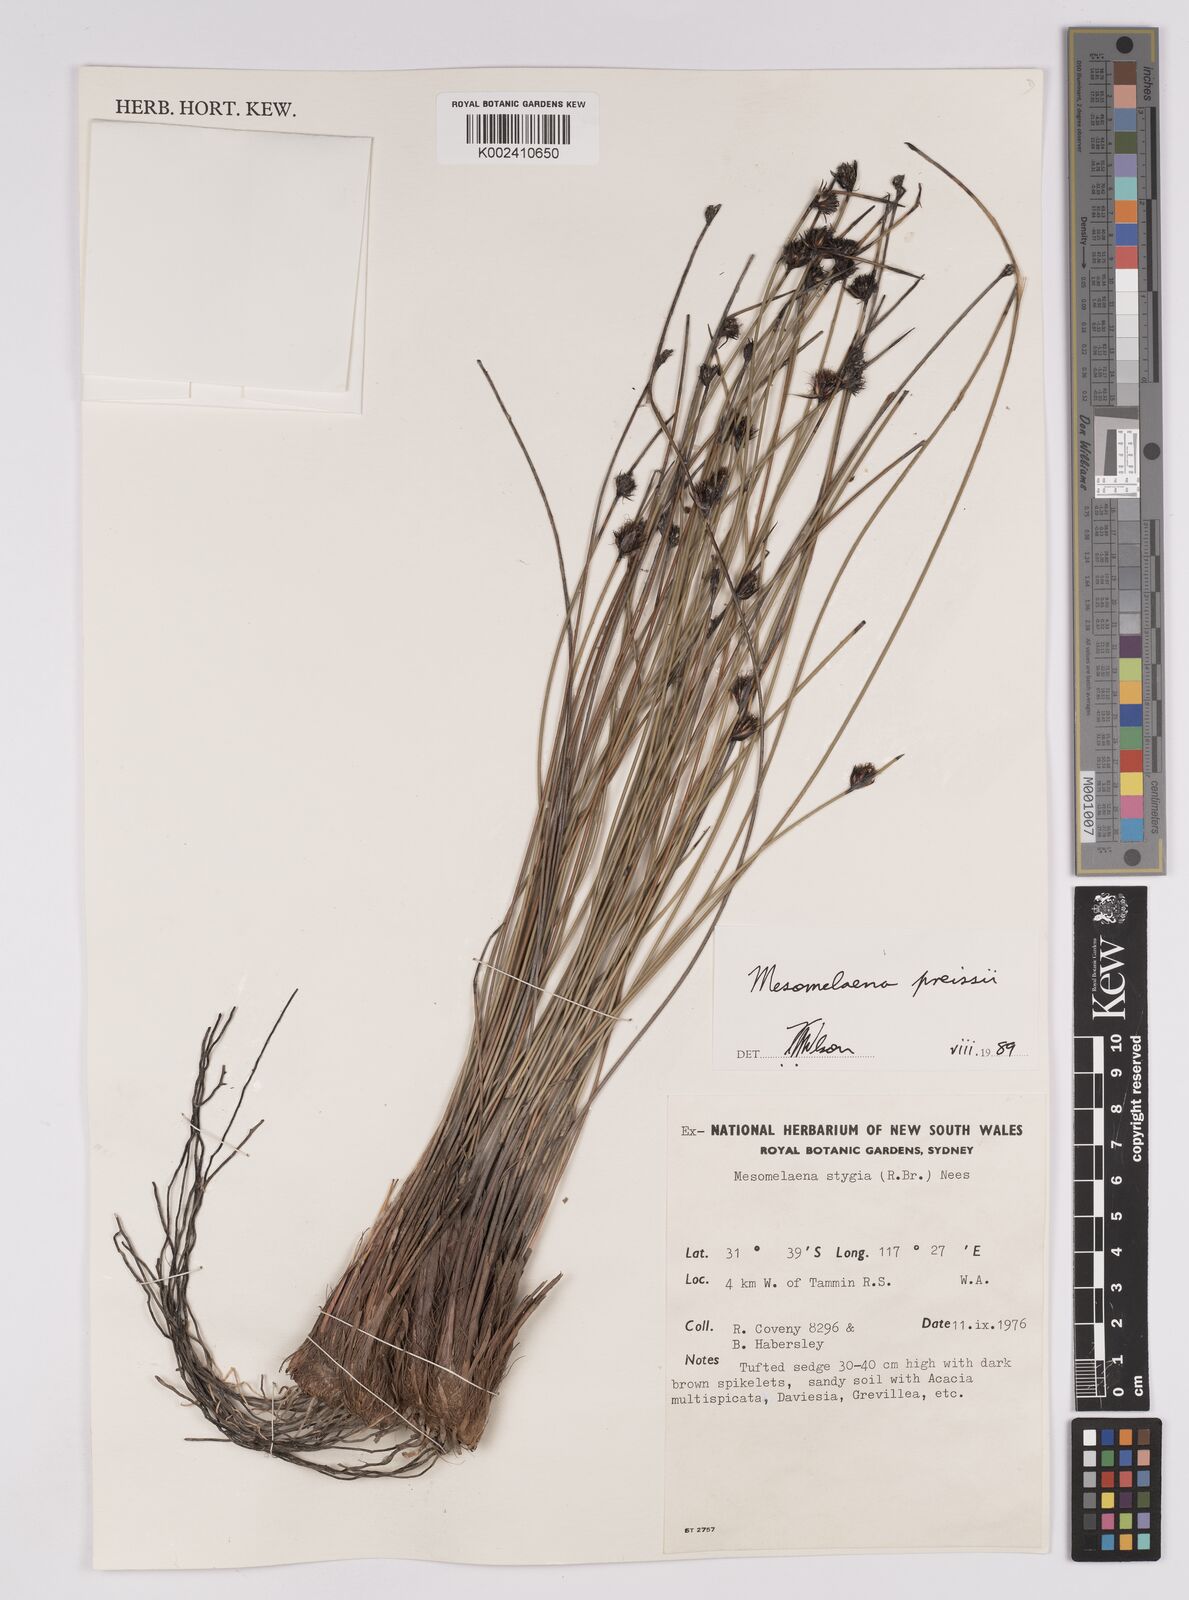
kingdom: Plantae
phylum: Tracheophyta
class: Liliopsida
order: Poales
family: Cyperaceae
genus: Mesomelaena
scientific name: Mesomelaena preissii
